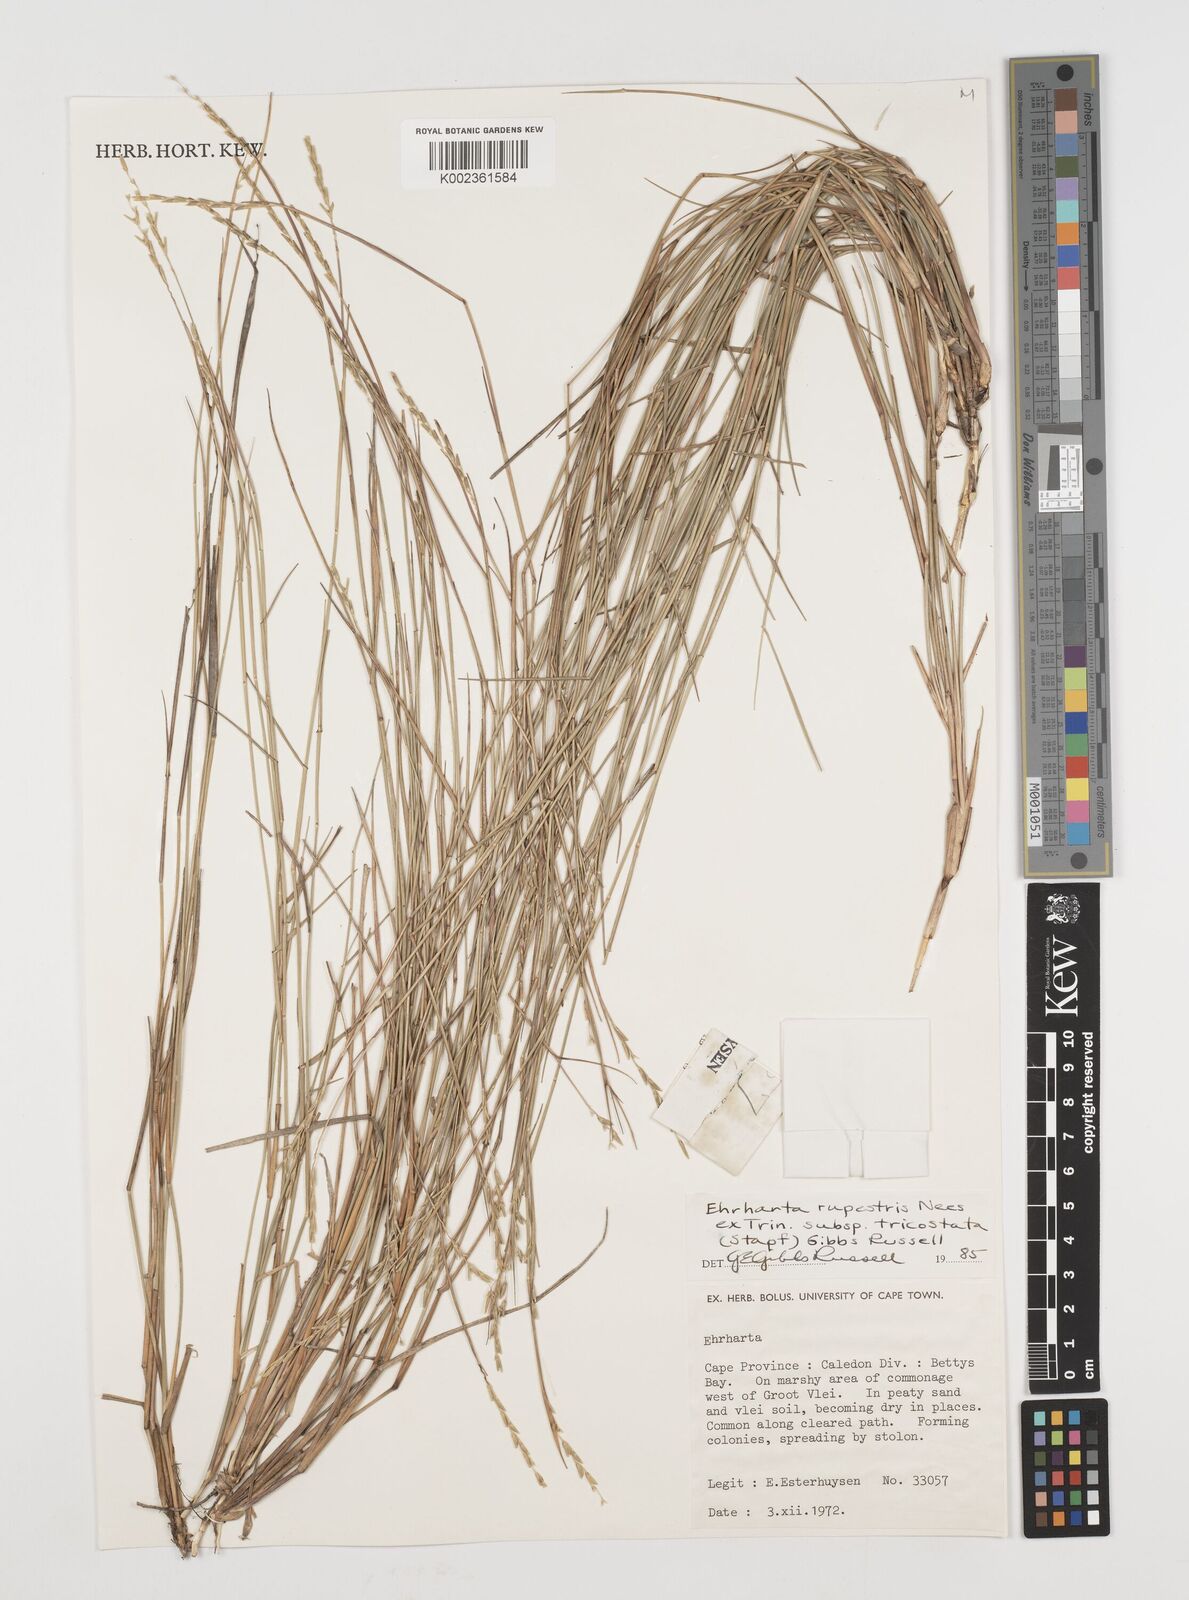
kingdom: Plantae
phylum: Tracheophyta
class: Liliopsida
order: Poales
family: Poaceae
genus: Ehrharta
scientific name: Ehrharta rupestris
